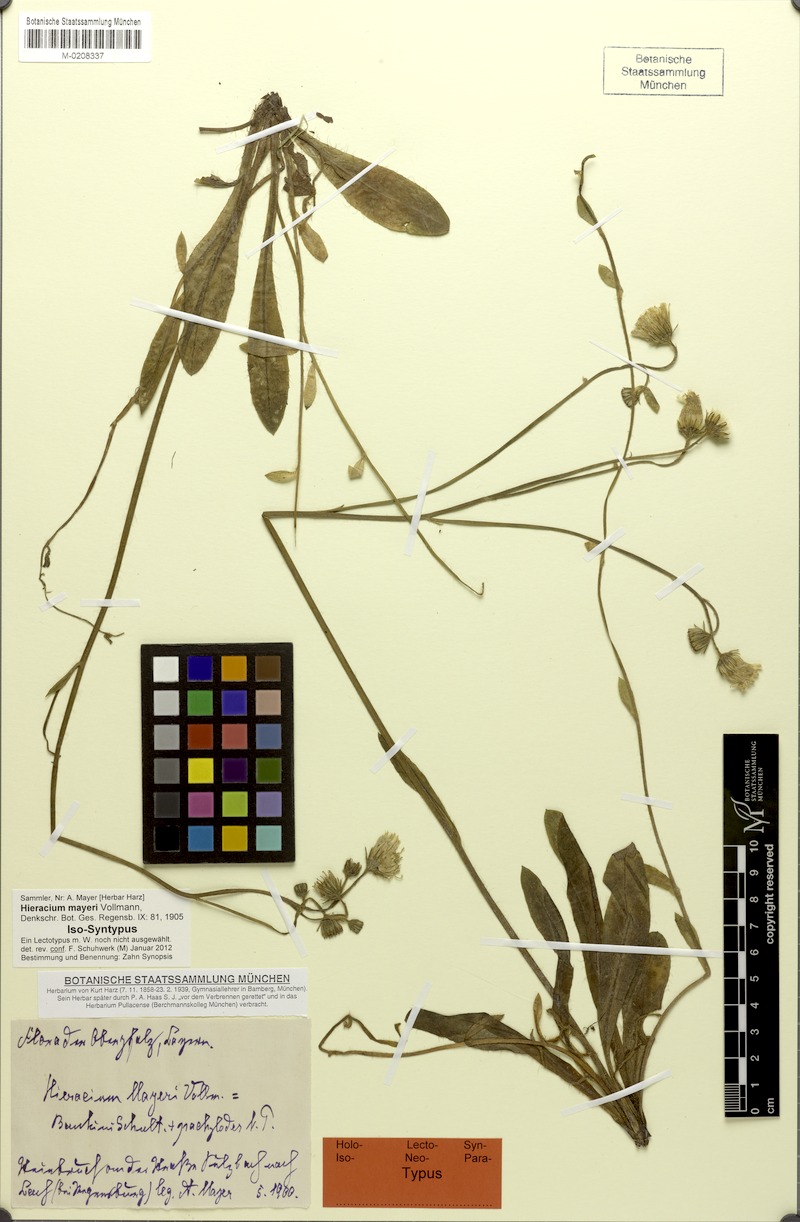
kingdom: Plantae
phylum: Tracheophyta
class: Magnoliopsida
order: Asterales
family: Asteraceae
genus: Pilosella
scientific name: Pilosella mayeri
